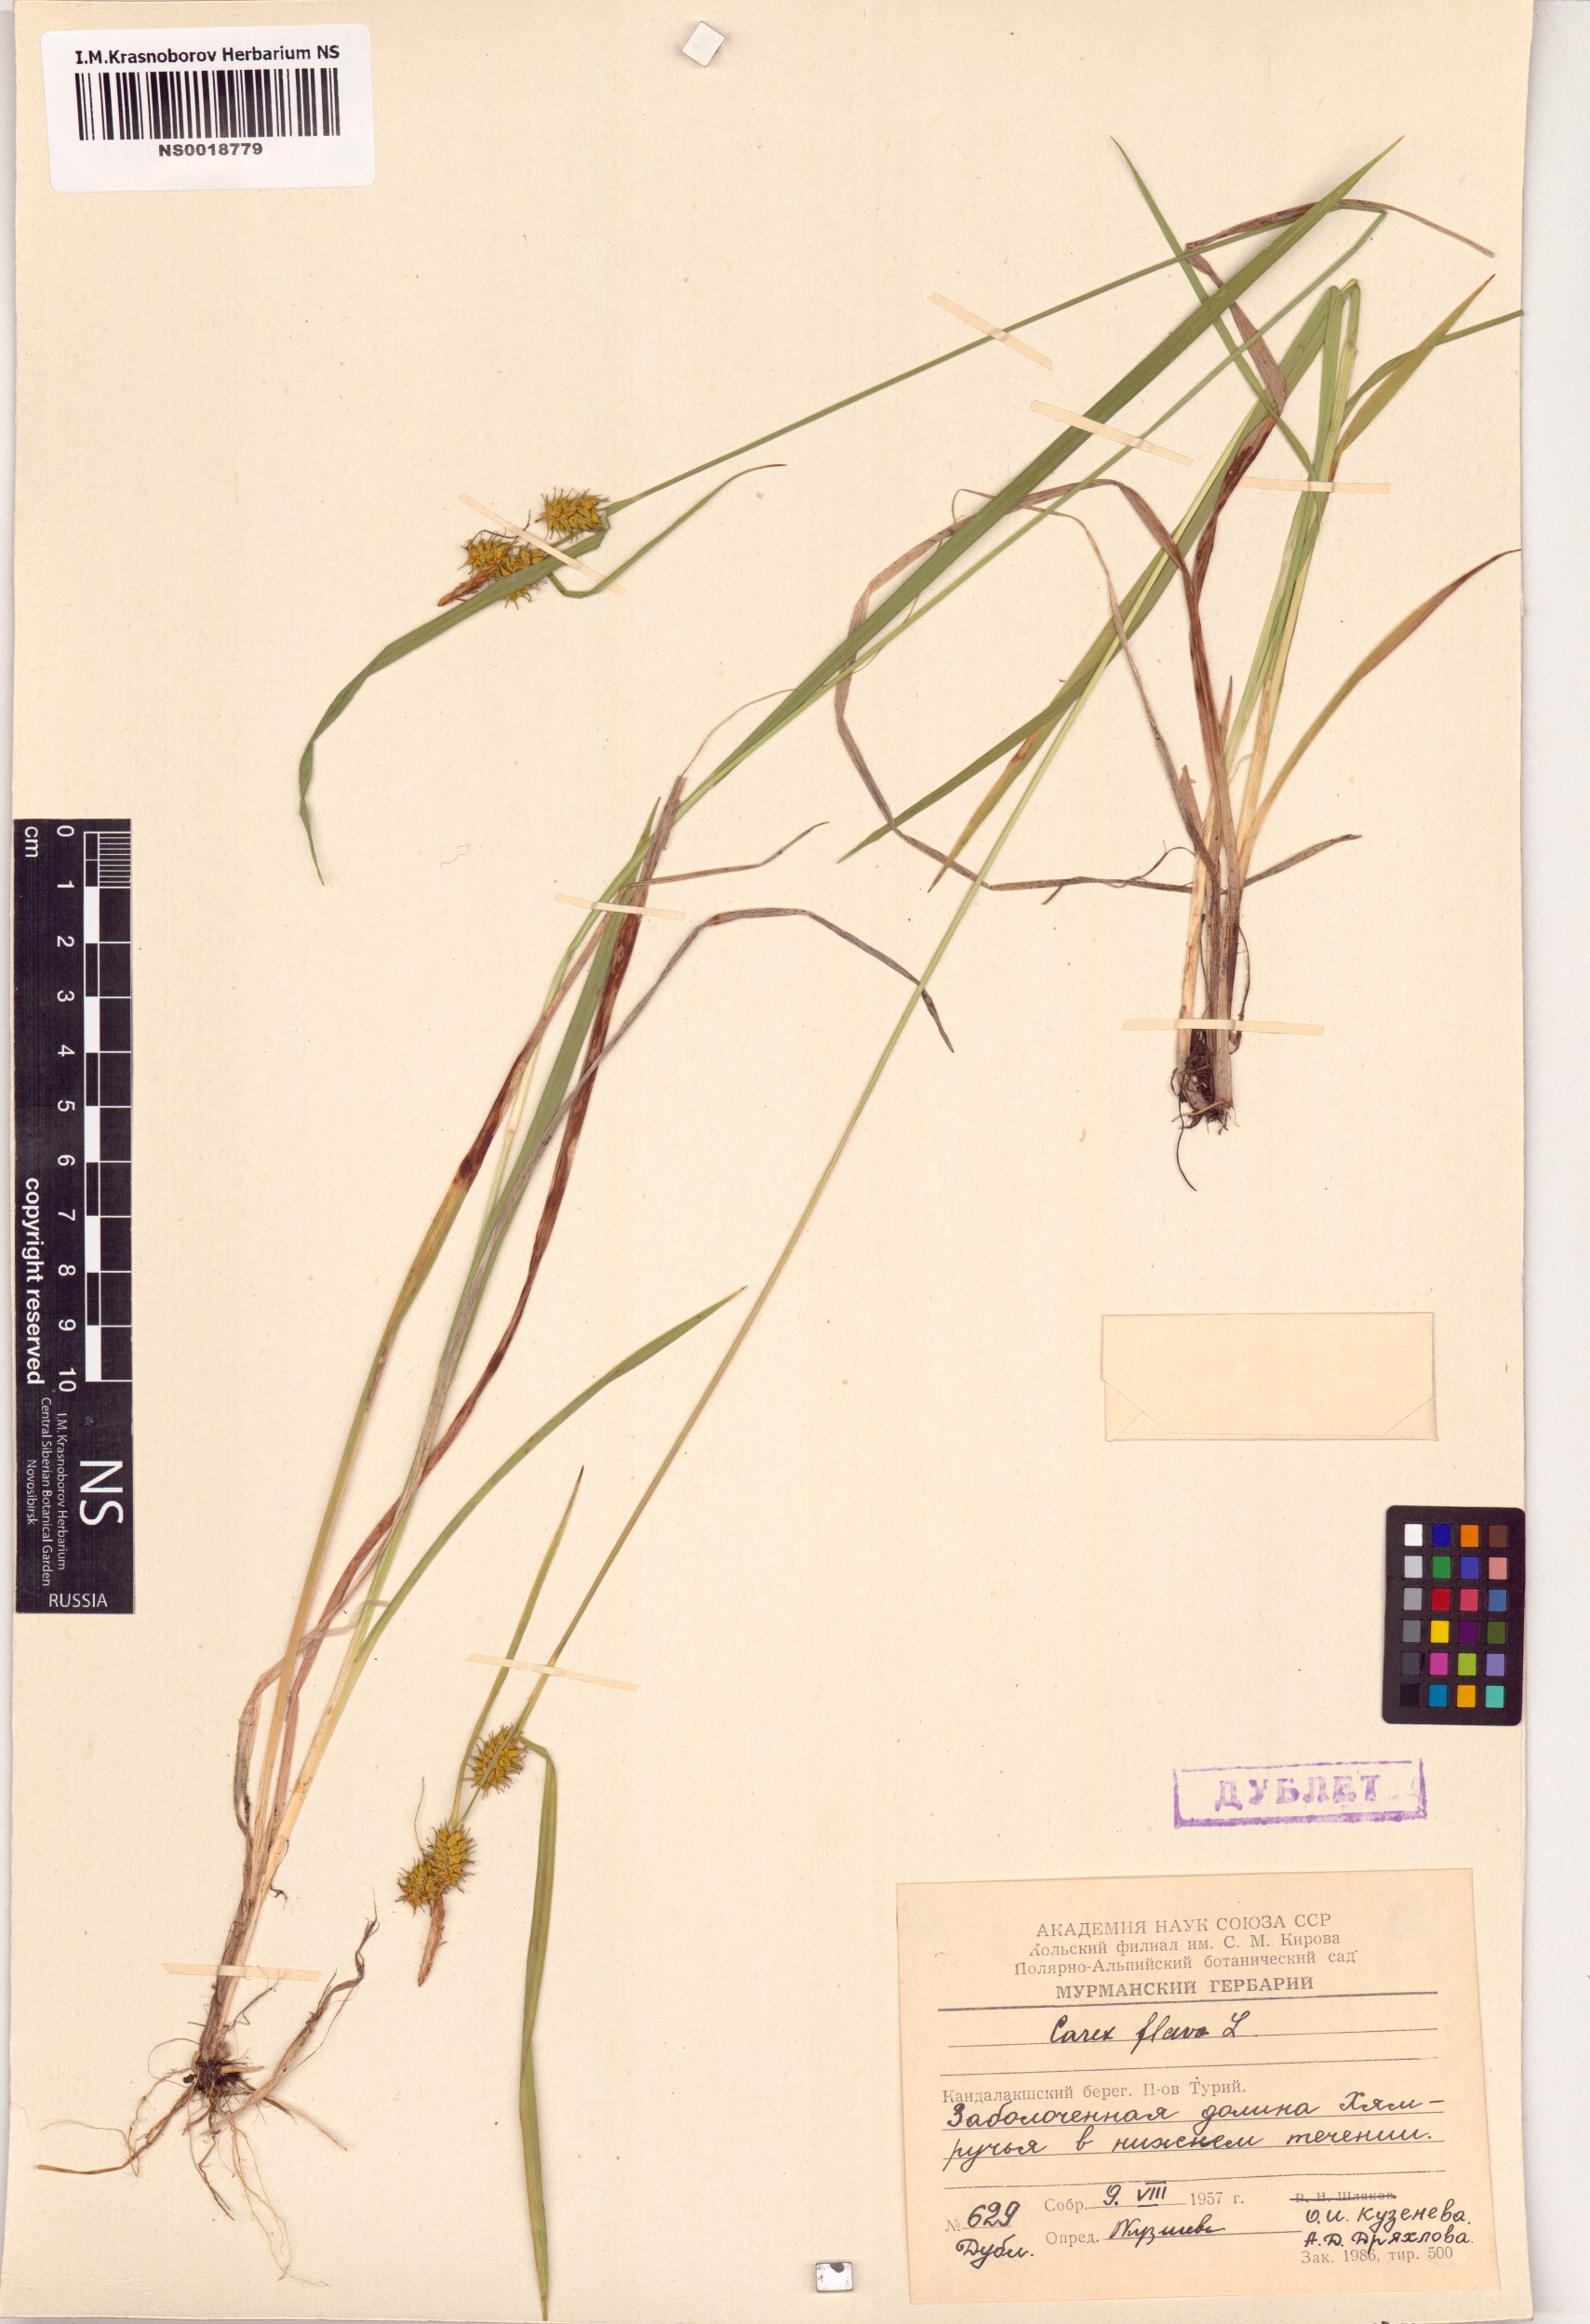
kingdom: Plantae
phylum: Tracheophyta
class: Liliopsida
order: Poales
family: Cyperaceae
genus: Carex
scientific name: Carex flava
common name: Large yellow-sedge
